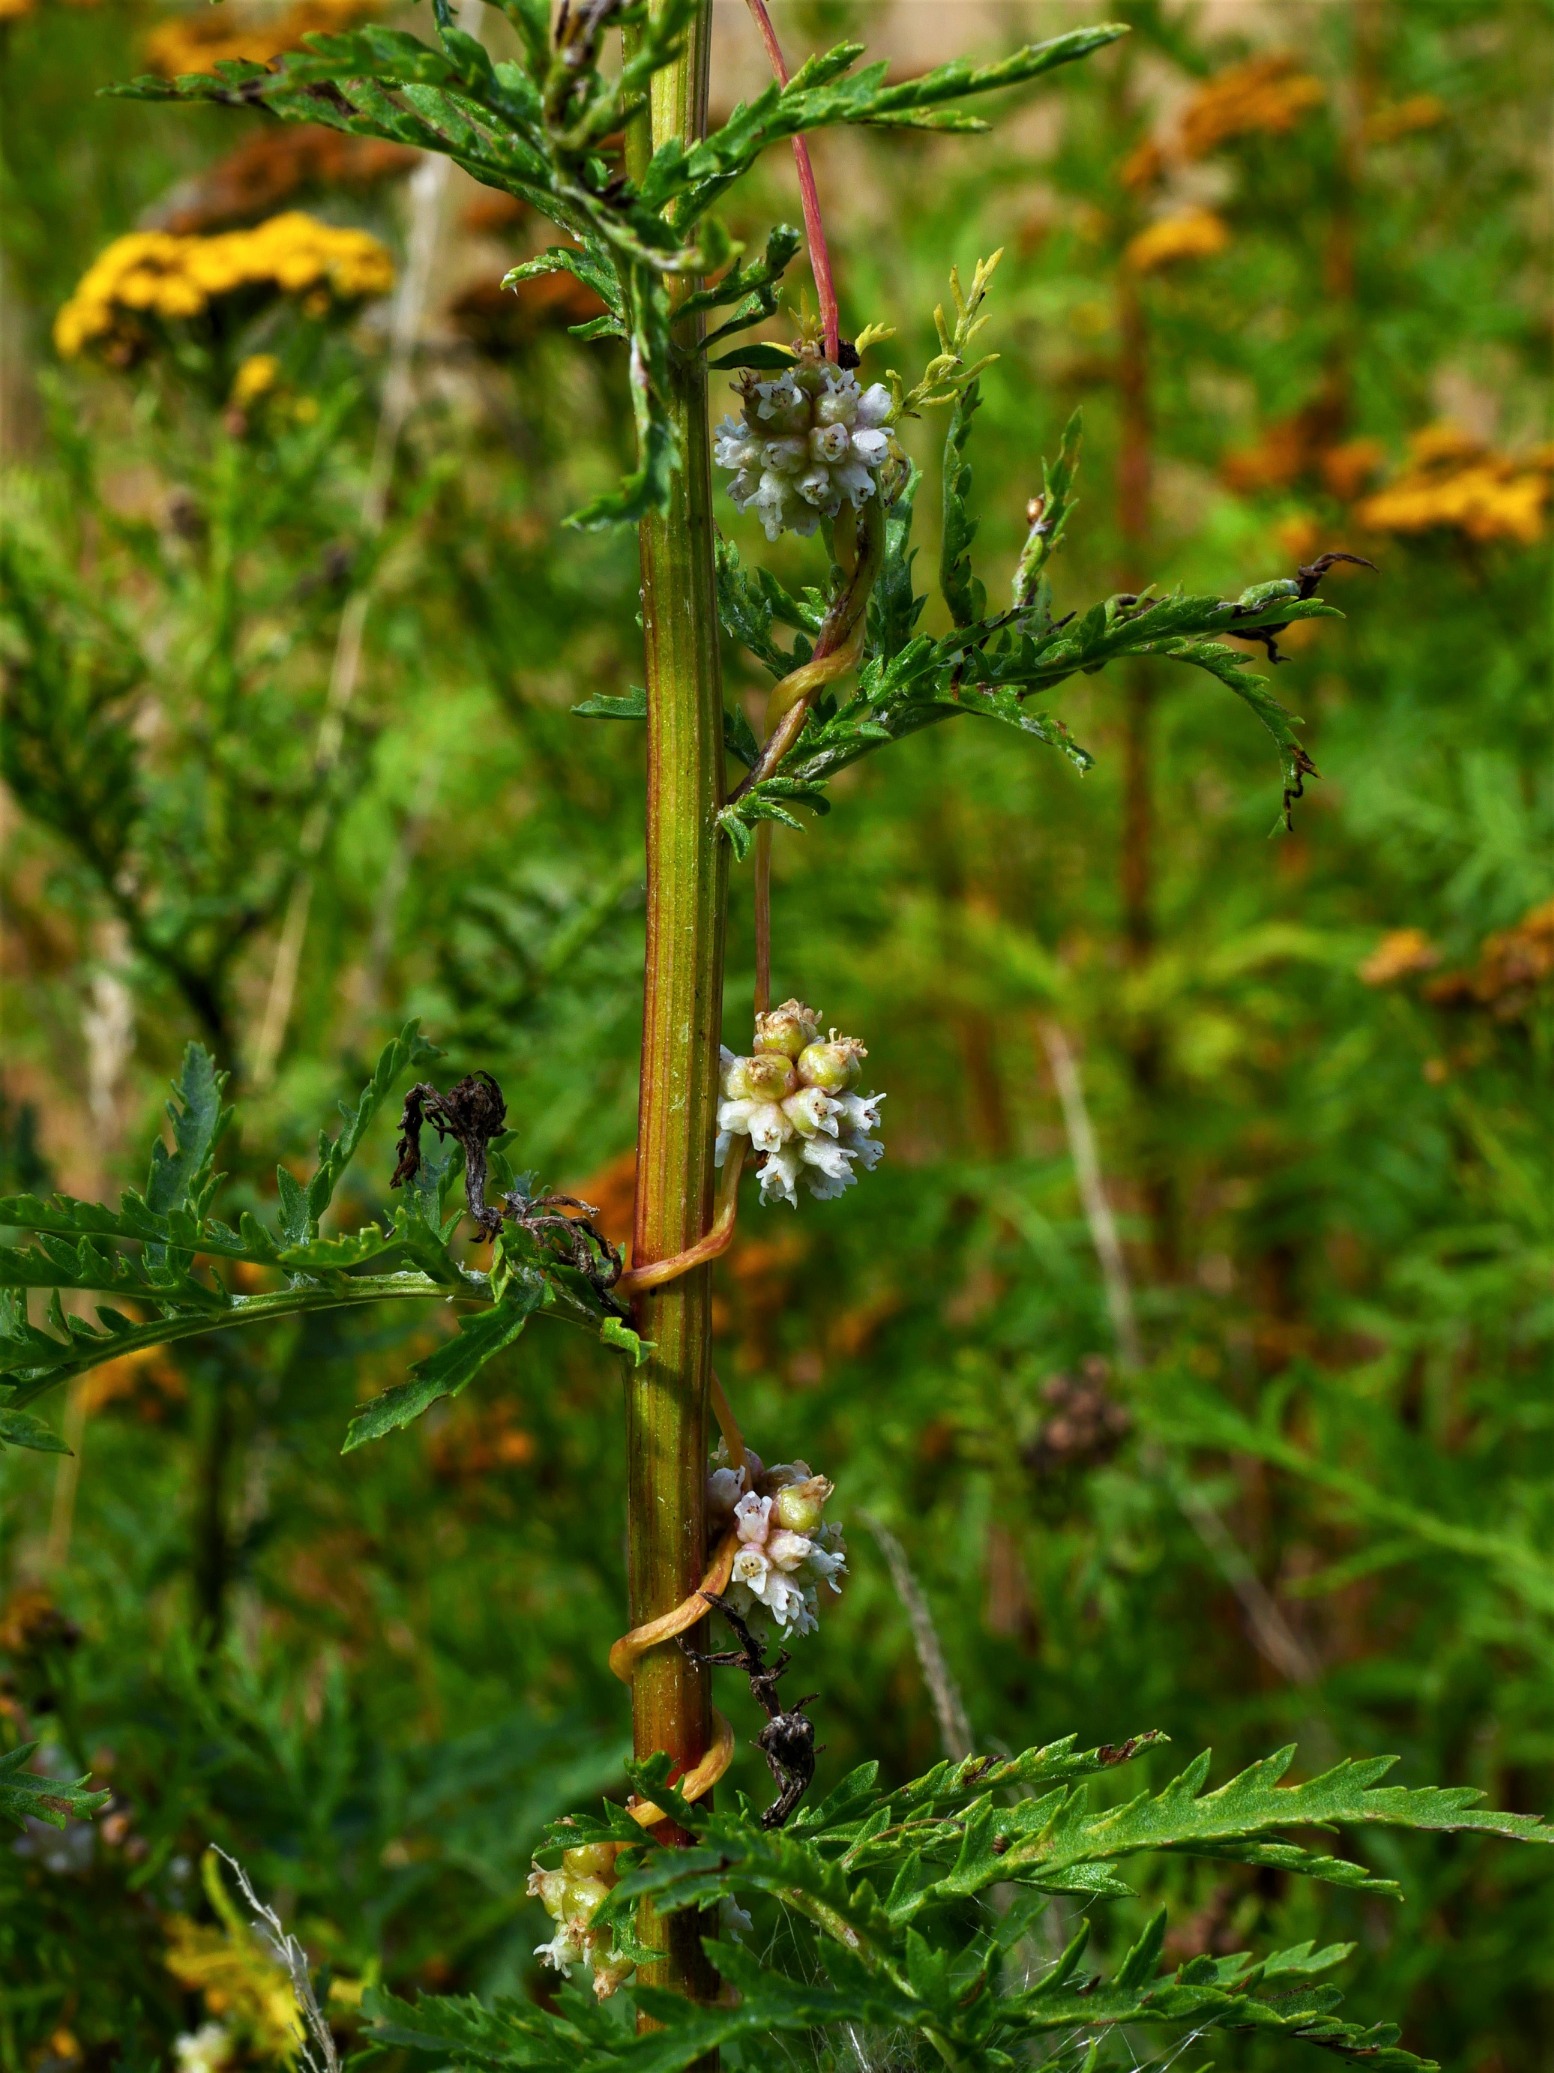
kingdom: Plantae
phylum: Tracheophyta
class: Magnoliopsida
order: Solanales
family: Convolvulaceae
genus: Cuscuta
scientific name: Cuscuta europaea
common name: Nælde-silke
